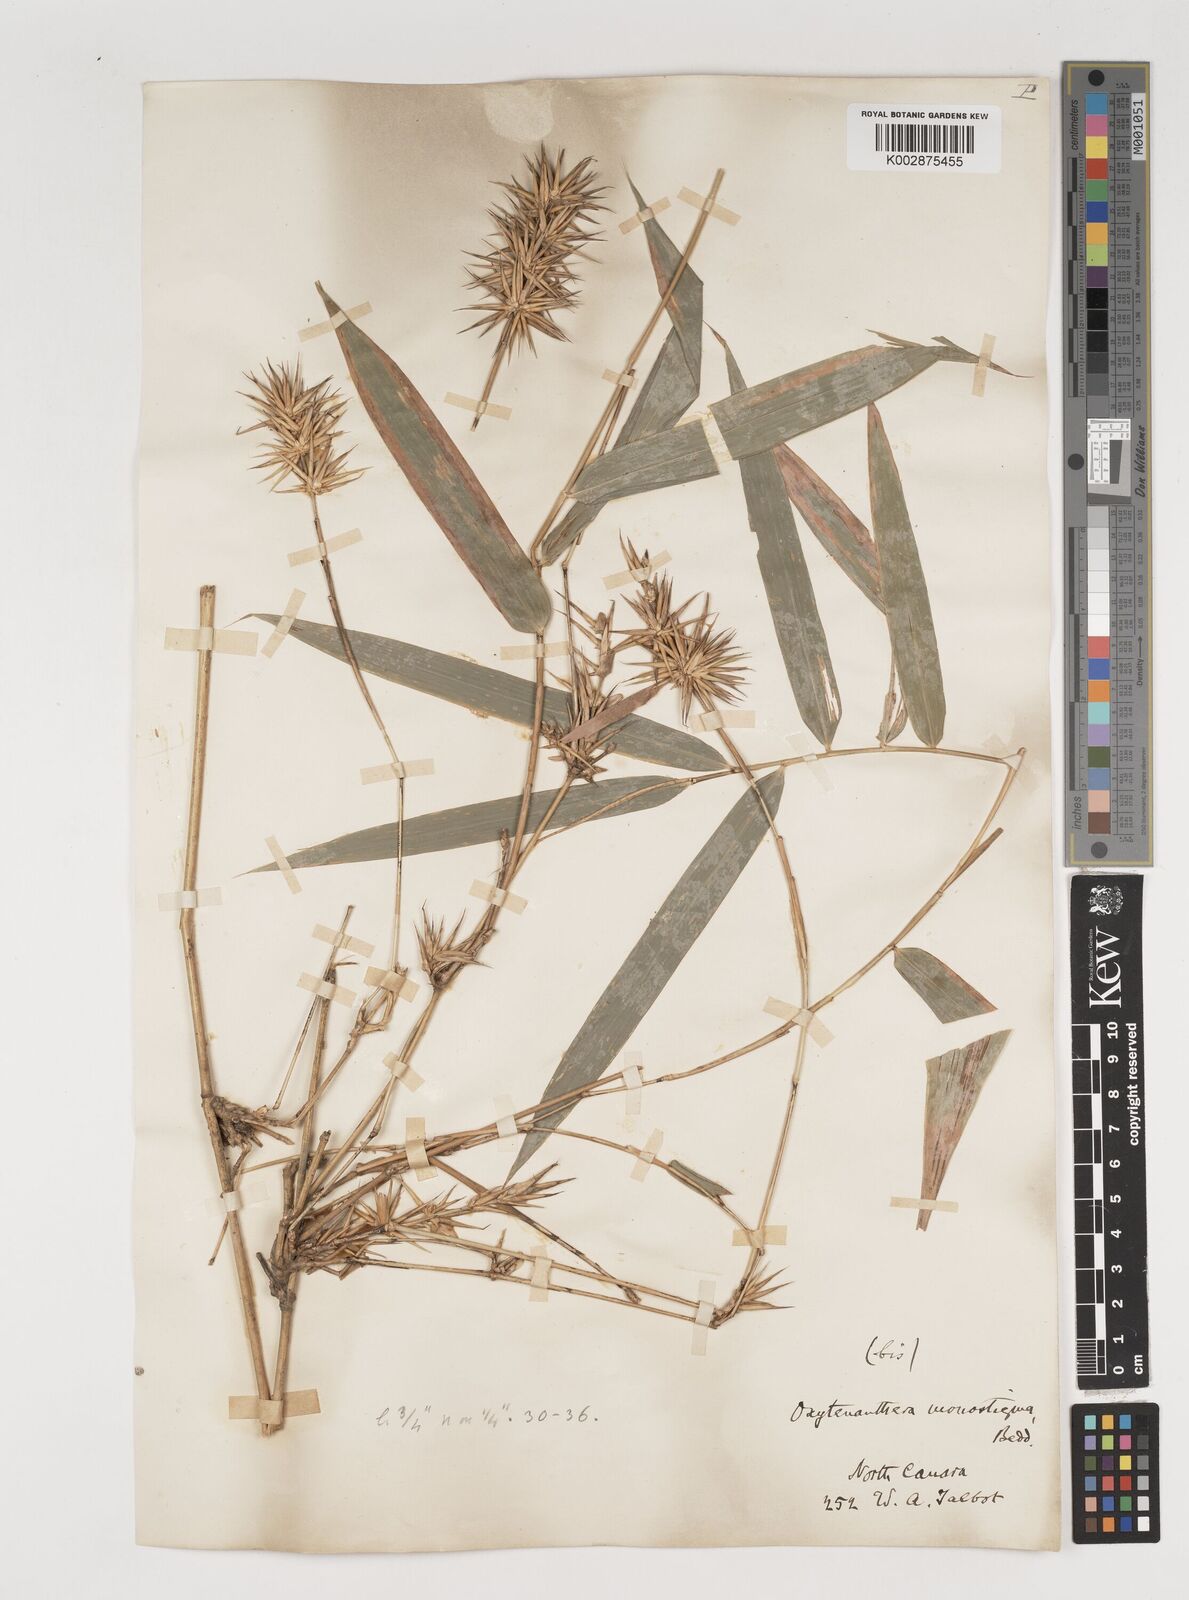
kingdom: Plantae
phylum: Tracheophyta
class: Liliopsida
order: Poales
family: Poaceae
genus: Pseudoxytenanthera
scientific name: Pseudoxytenanthera monadelpha
